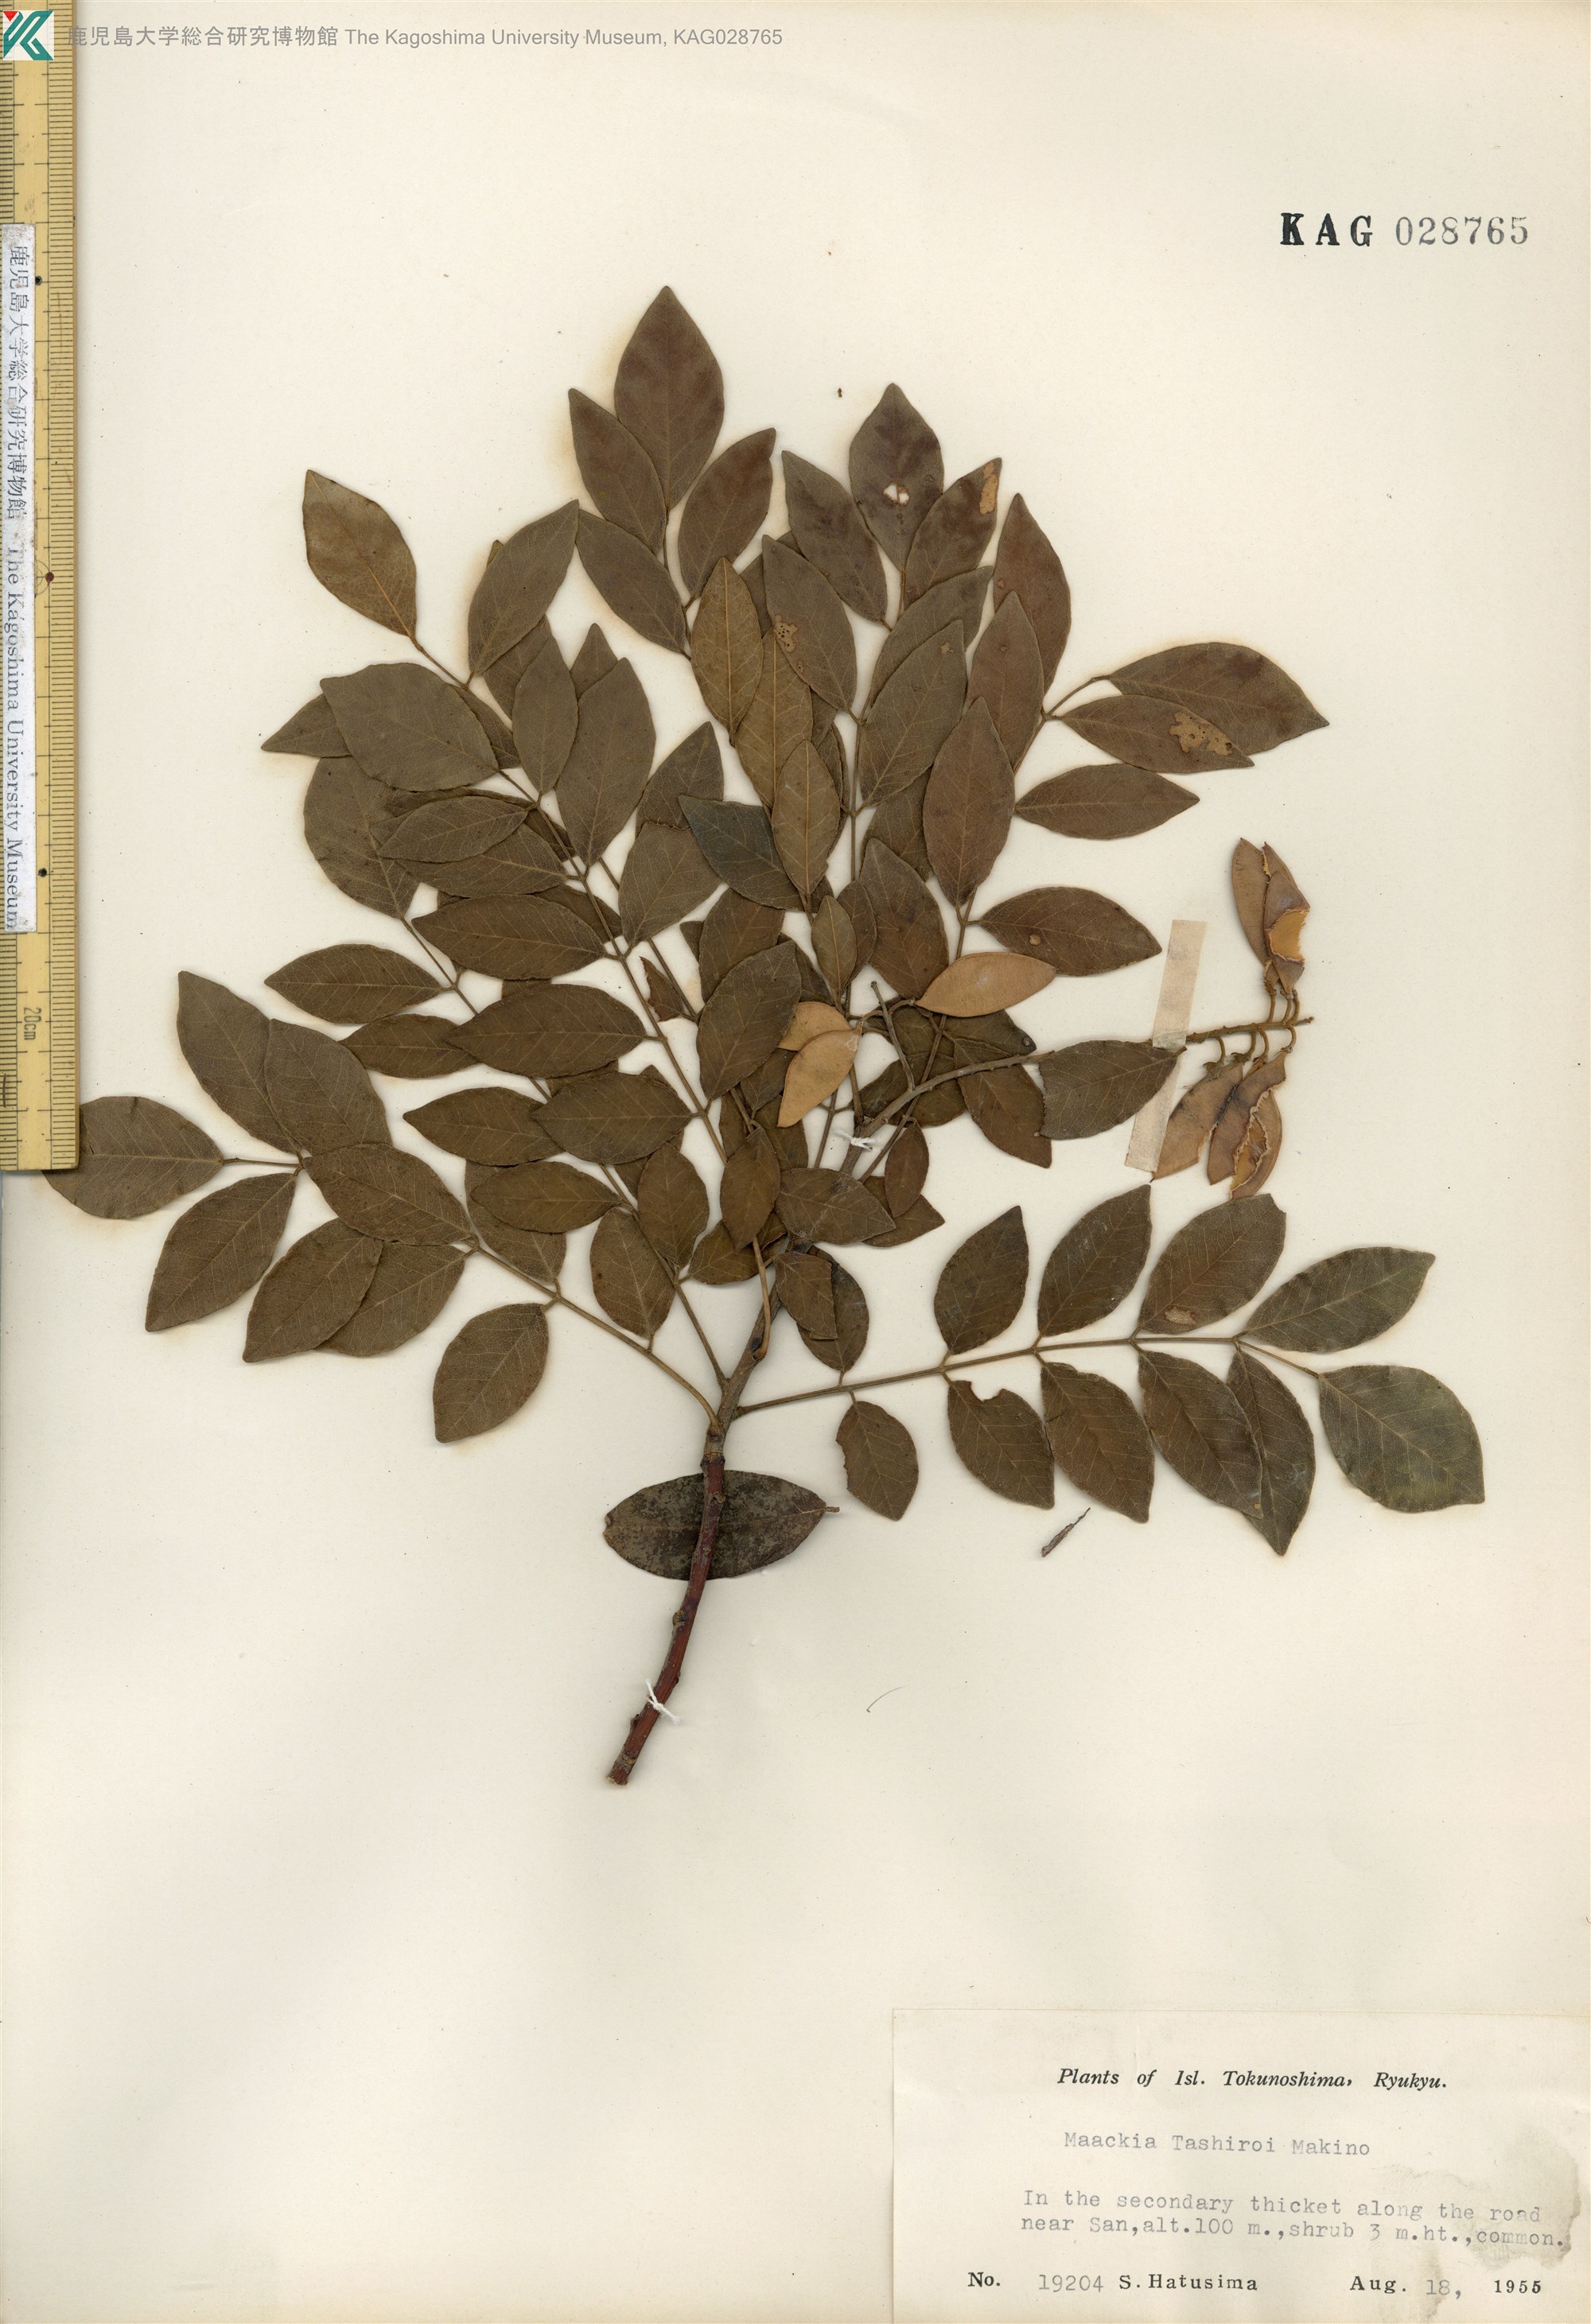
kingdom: Plantae
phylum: Tracheophyta
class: Magnoliopsida
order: Fabales
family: Fabaceae
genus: Maackia
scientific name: Maackia tashiroi
